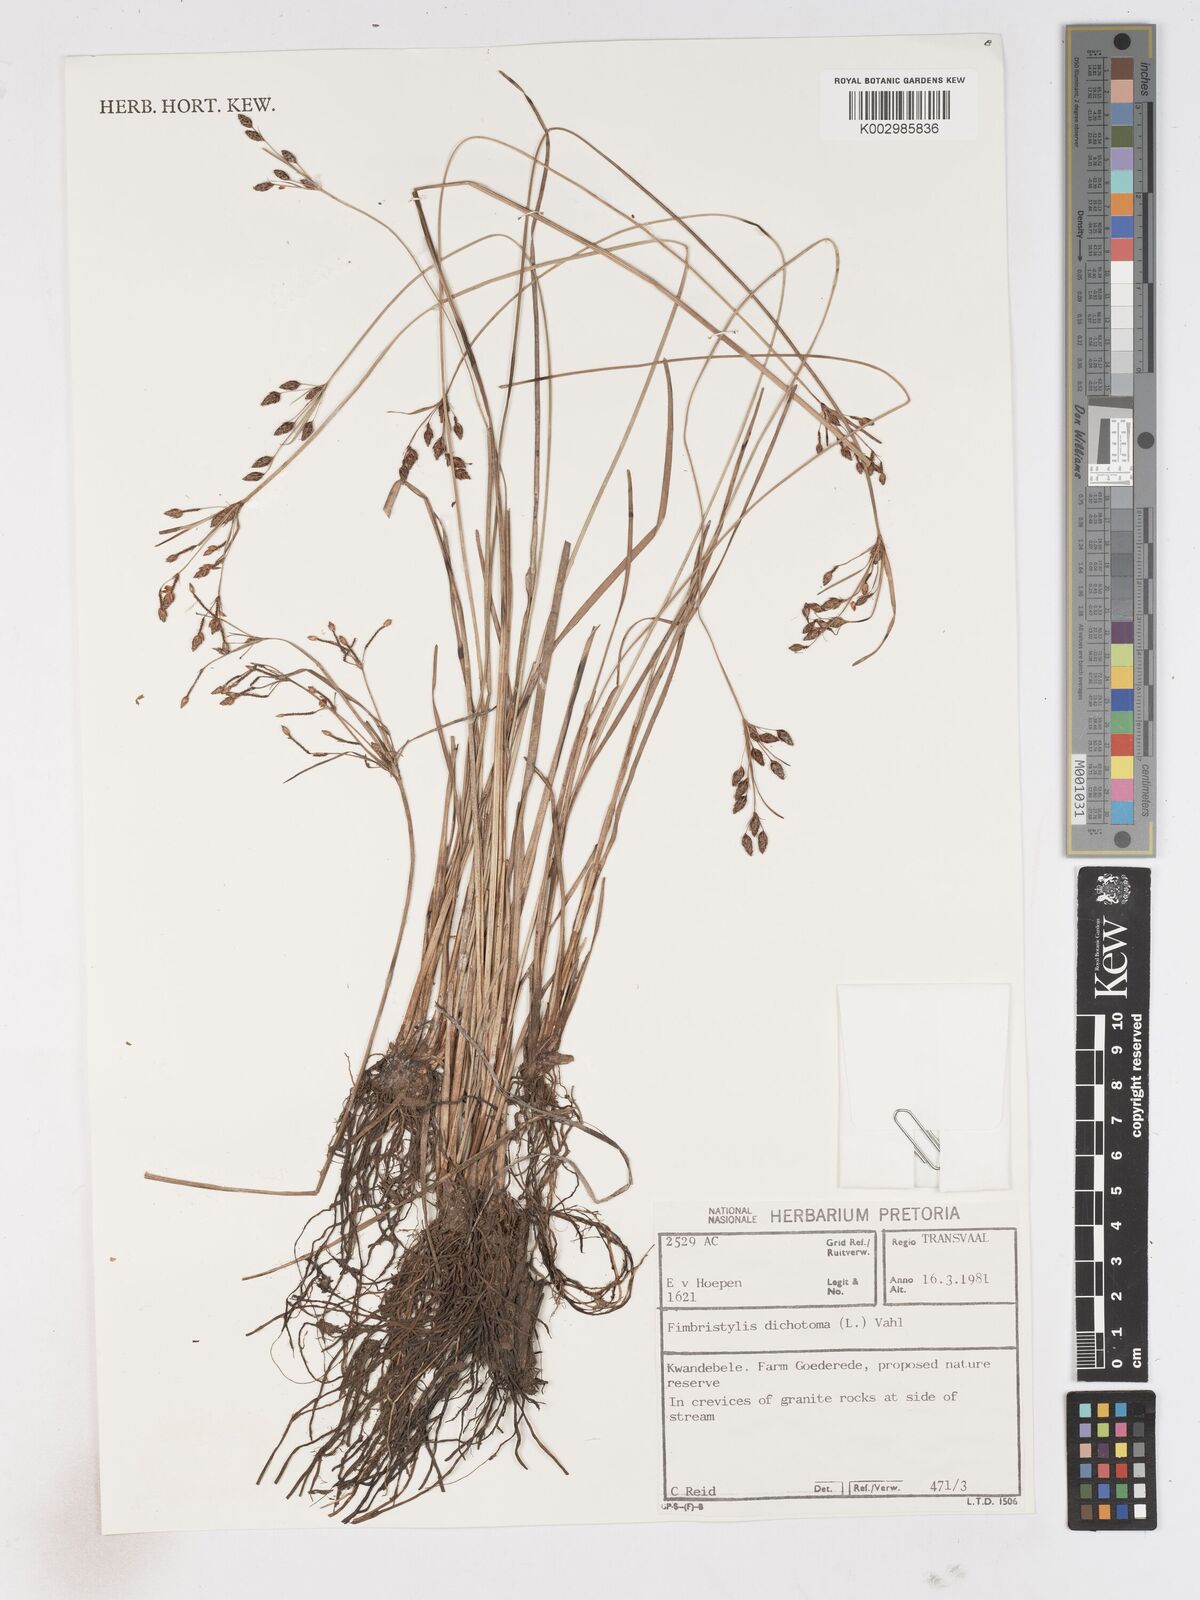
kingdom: Plantae
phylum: Tracheophyta
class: Liliopsida
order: Poales
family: Cyperaceae
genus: Fimbristylis
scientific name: Fimbristylis dichotoma
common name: Forked fimbry
